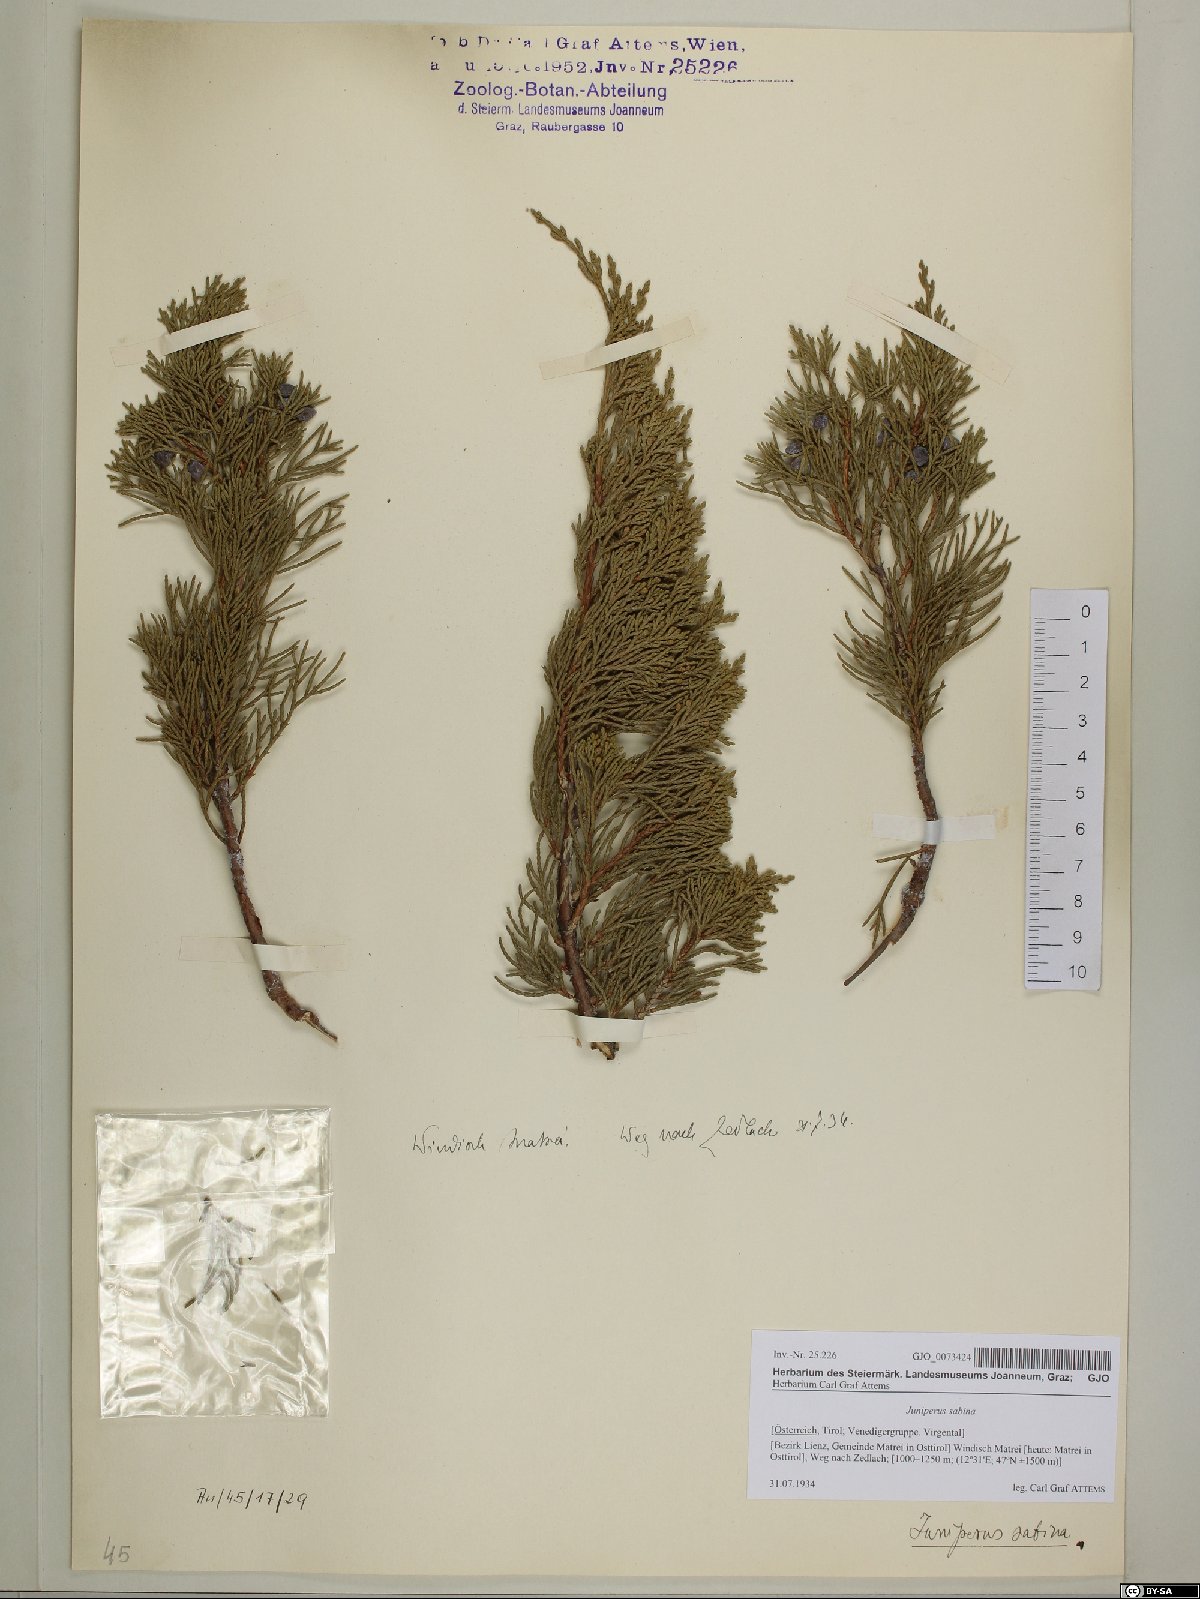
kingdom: Plantae
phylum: Tracheophyta
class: Pinopsida
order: Pinales
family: Cupressaceae
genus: Juniperus
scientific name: Juniperus sabina
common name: Savin
